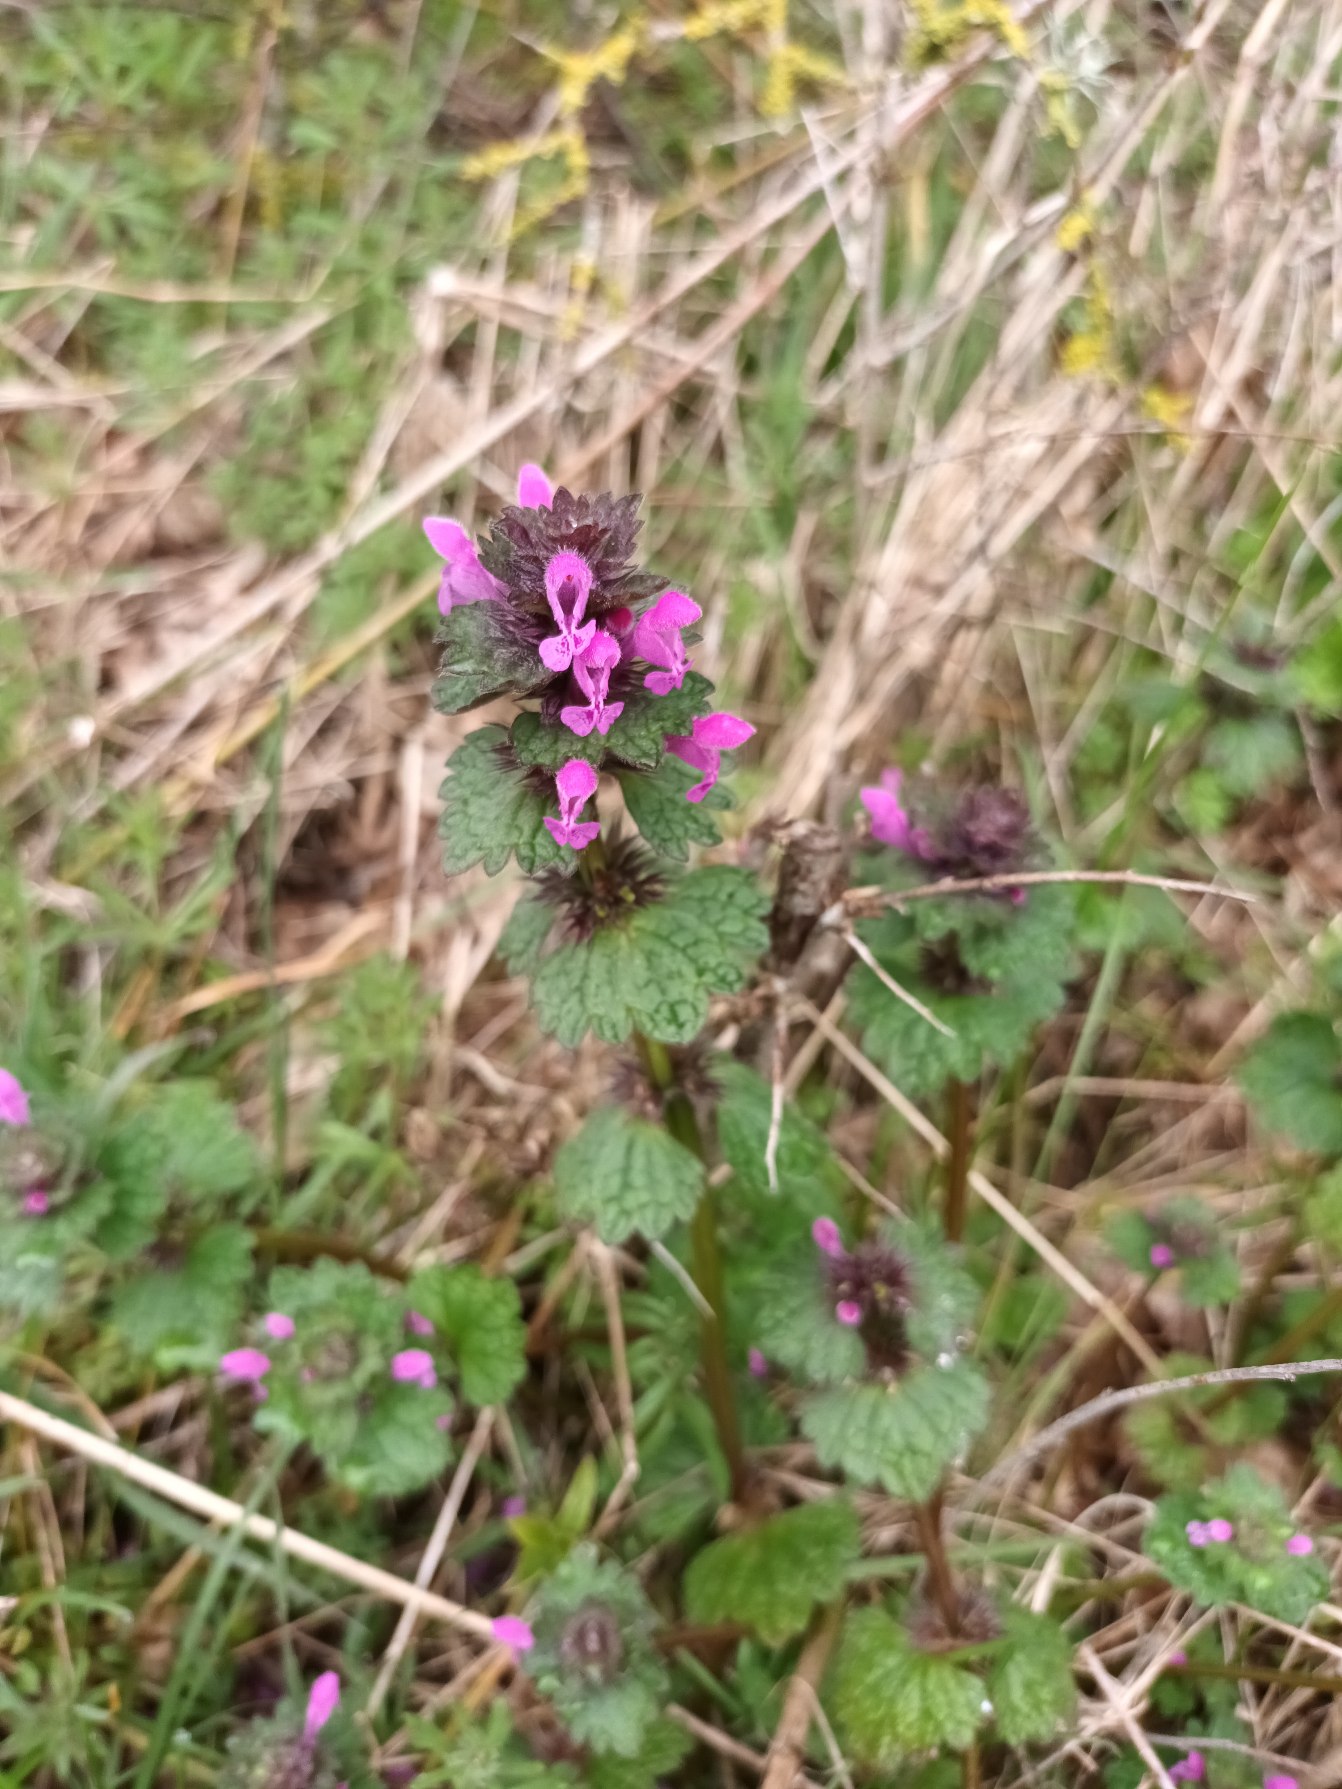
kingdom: Plantae
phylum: Tracheophyta
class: Magnoliopsida
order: Lamiales
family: Lamiaceae
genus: Lamium
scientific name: Lamium confertum
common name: Nyrebladet tvetand
